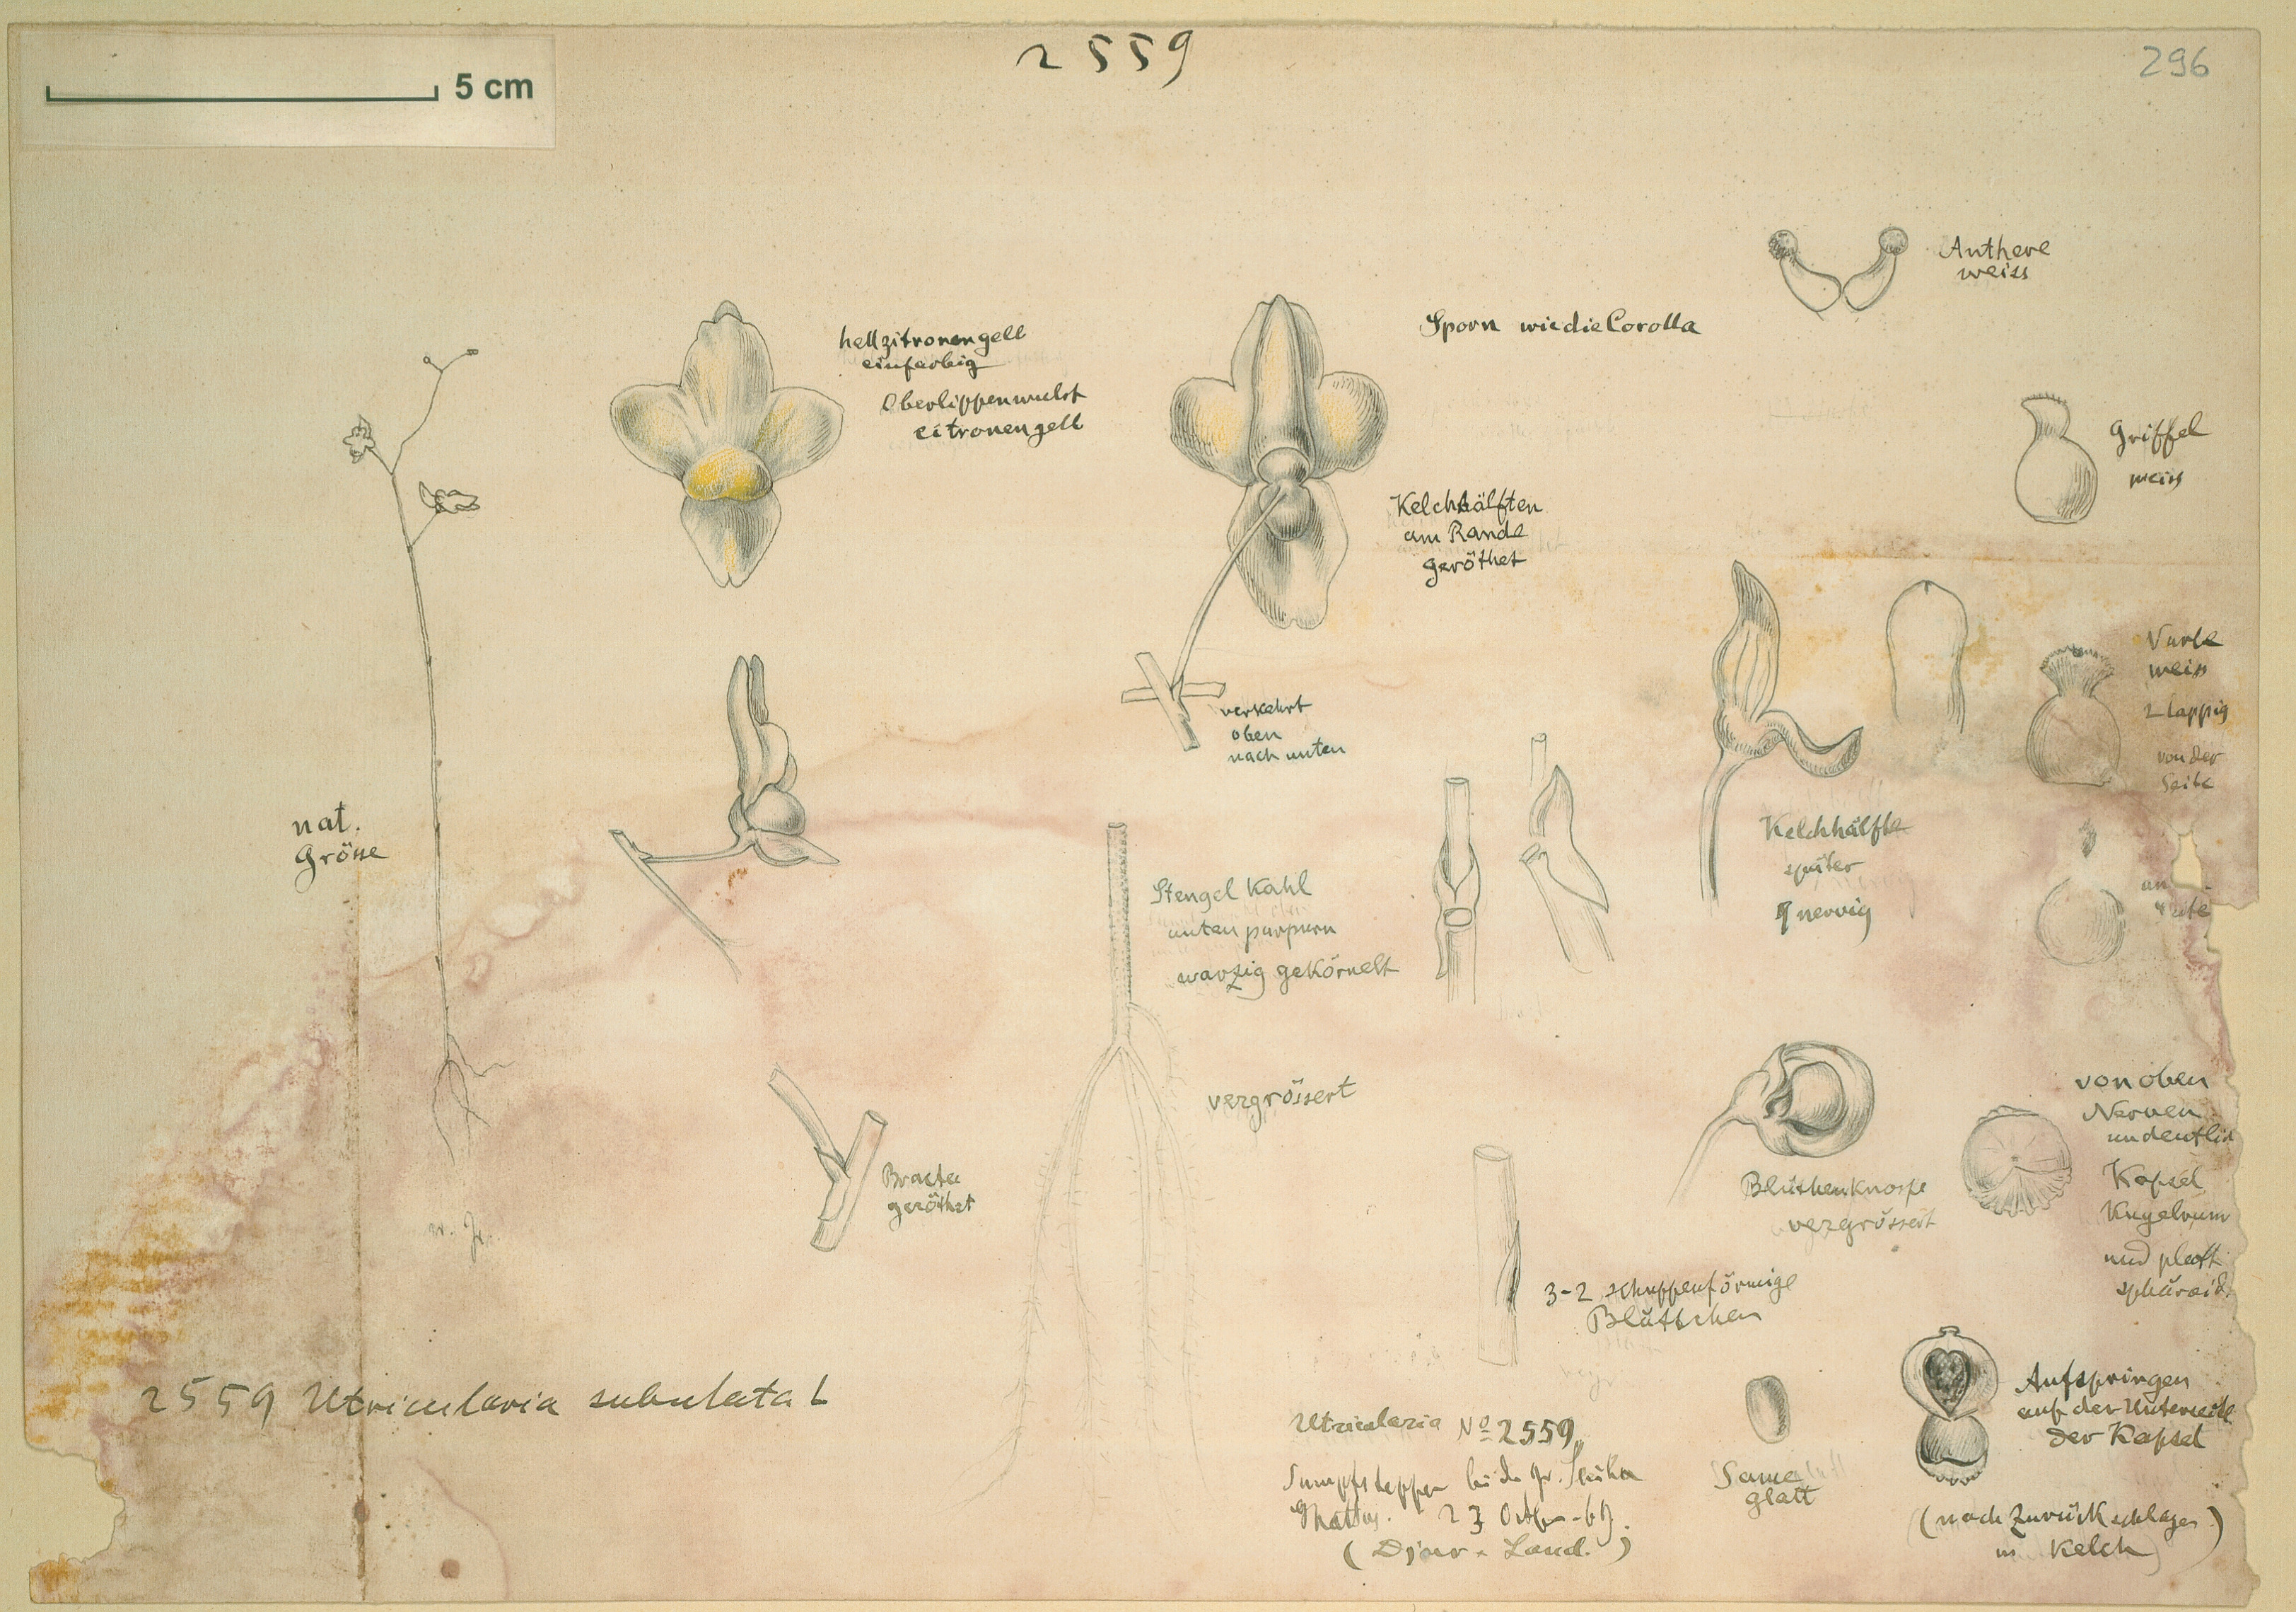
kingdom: Plantae
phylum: Tracheophyta
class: Magnoliopsida
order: Lamiales
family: Lentibulariaceae
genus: Utricularia
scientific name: Utricularia subulata
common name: Tiny bladderwort
